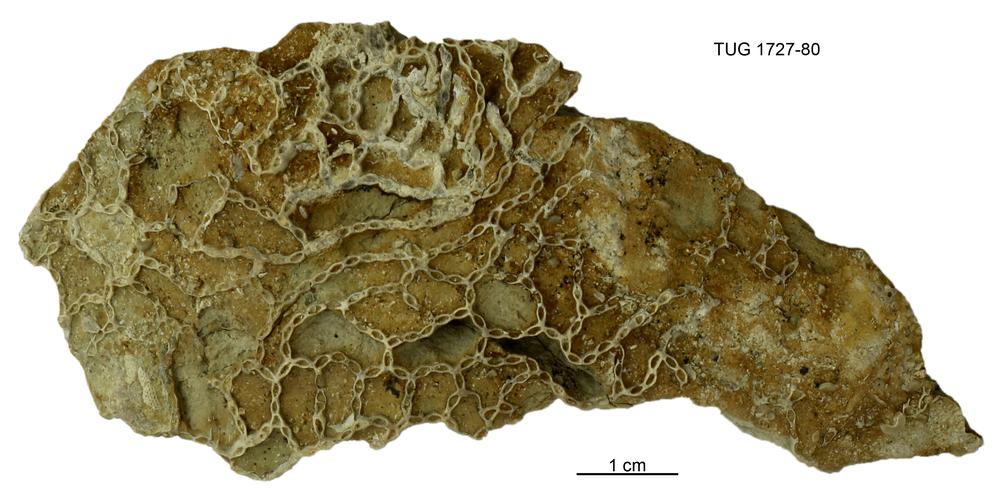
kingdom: Animalia
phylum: Cnidaria
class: Anthozoa
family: Cateniporidae
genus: Catenipora
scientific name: Catenipora
